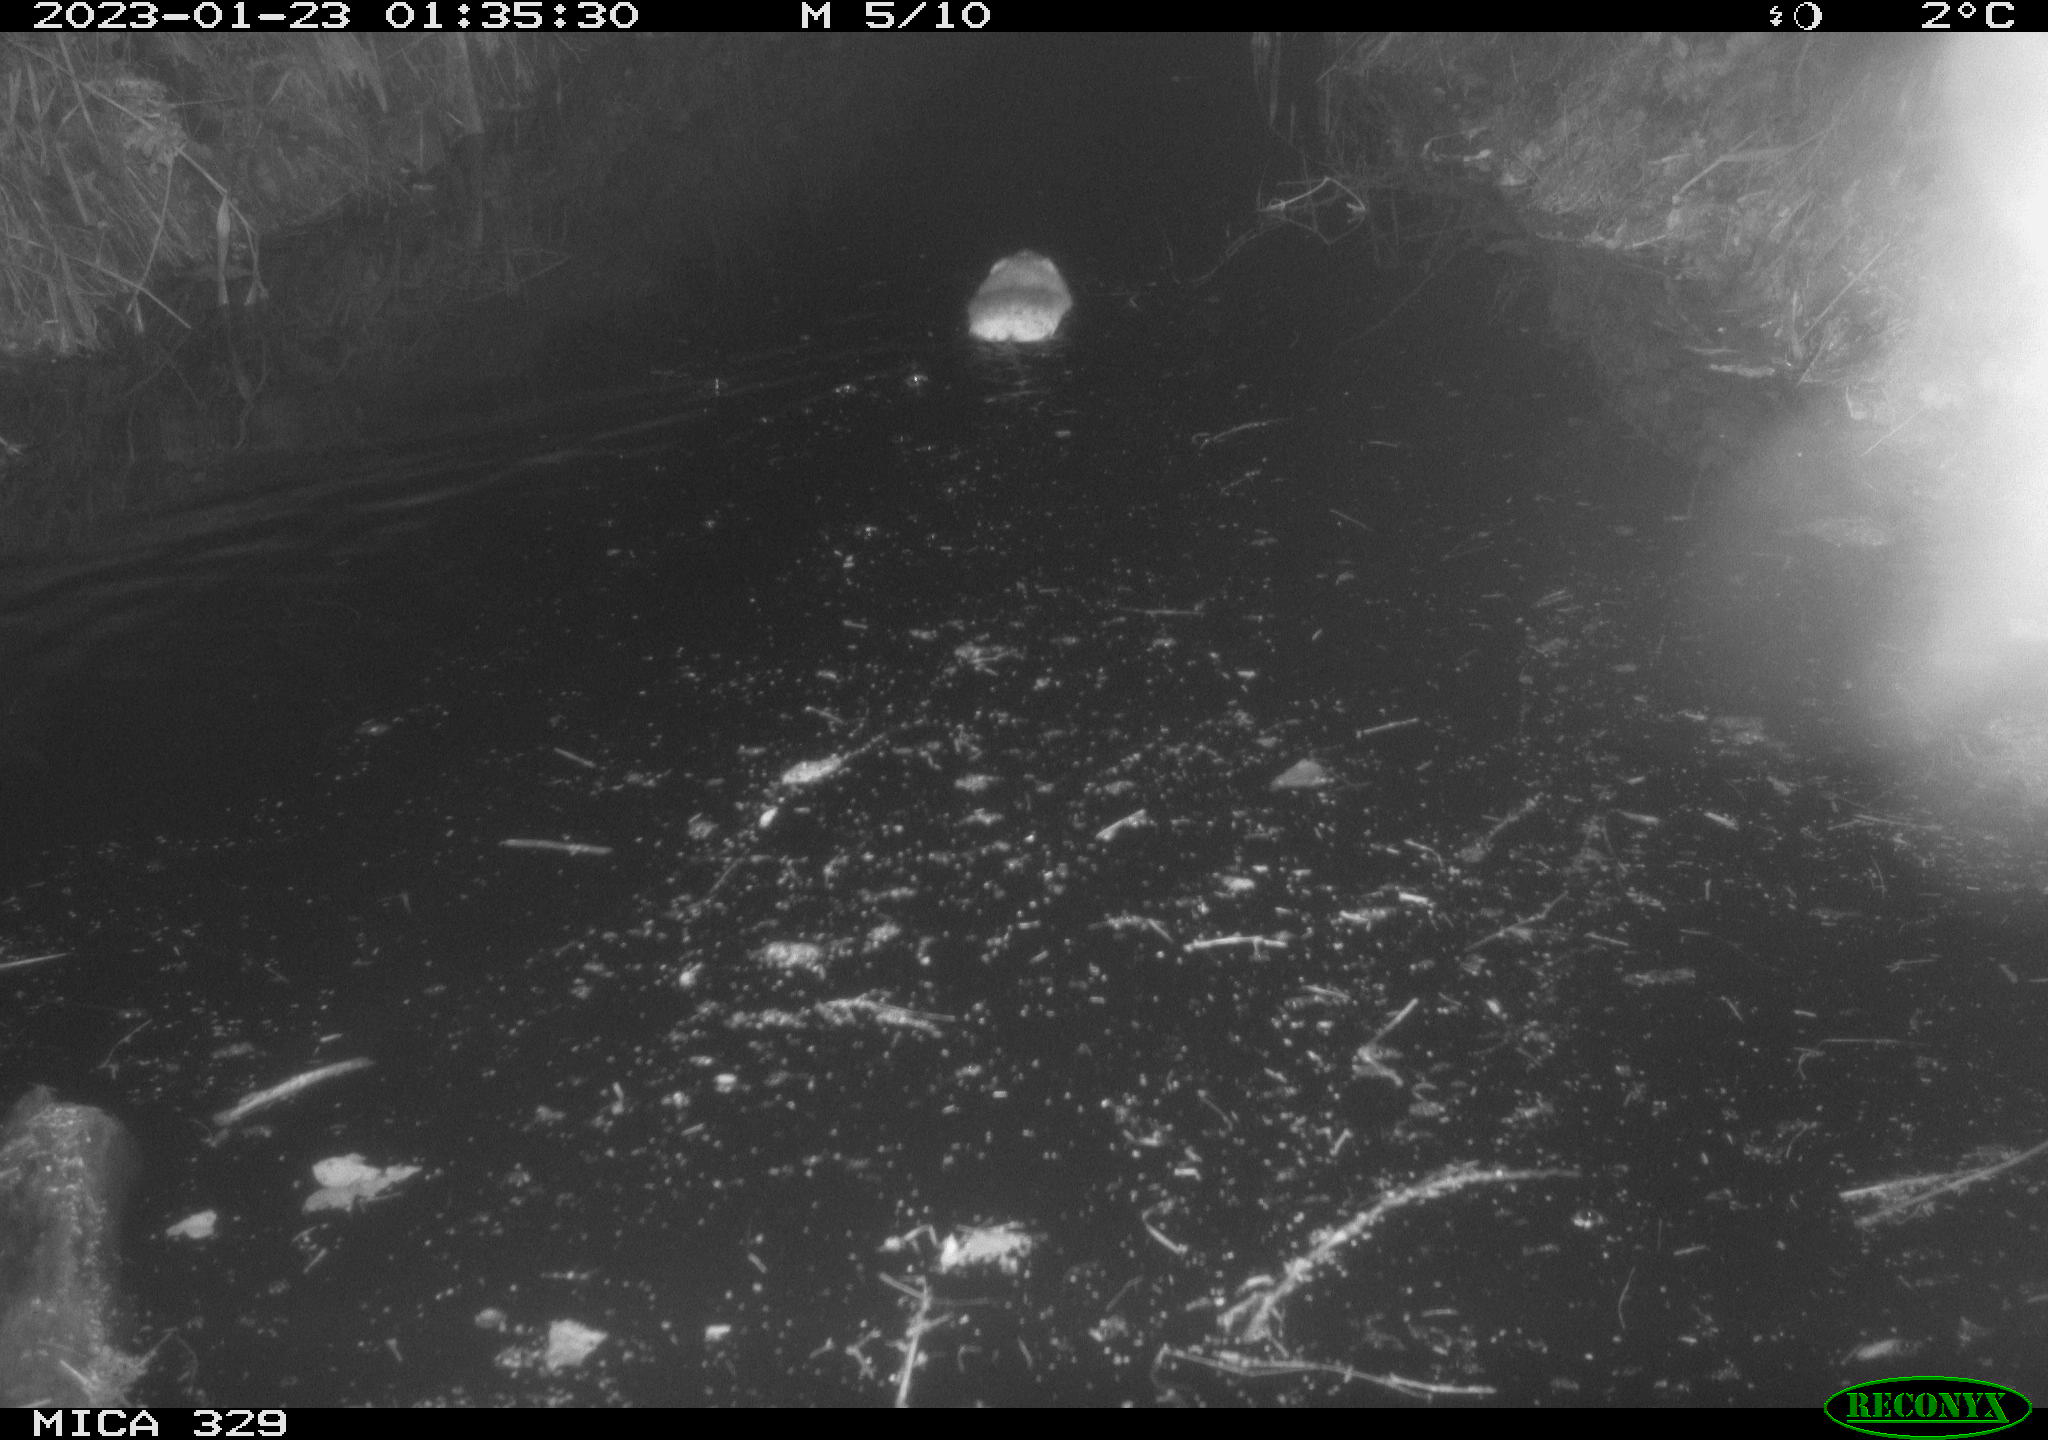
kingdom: Animalia
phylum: Chordata
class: Mammalia
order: Rodentia
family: Cricetidae
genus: Ondatra
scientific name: Ondatra zibethicus
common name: Muskrat
